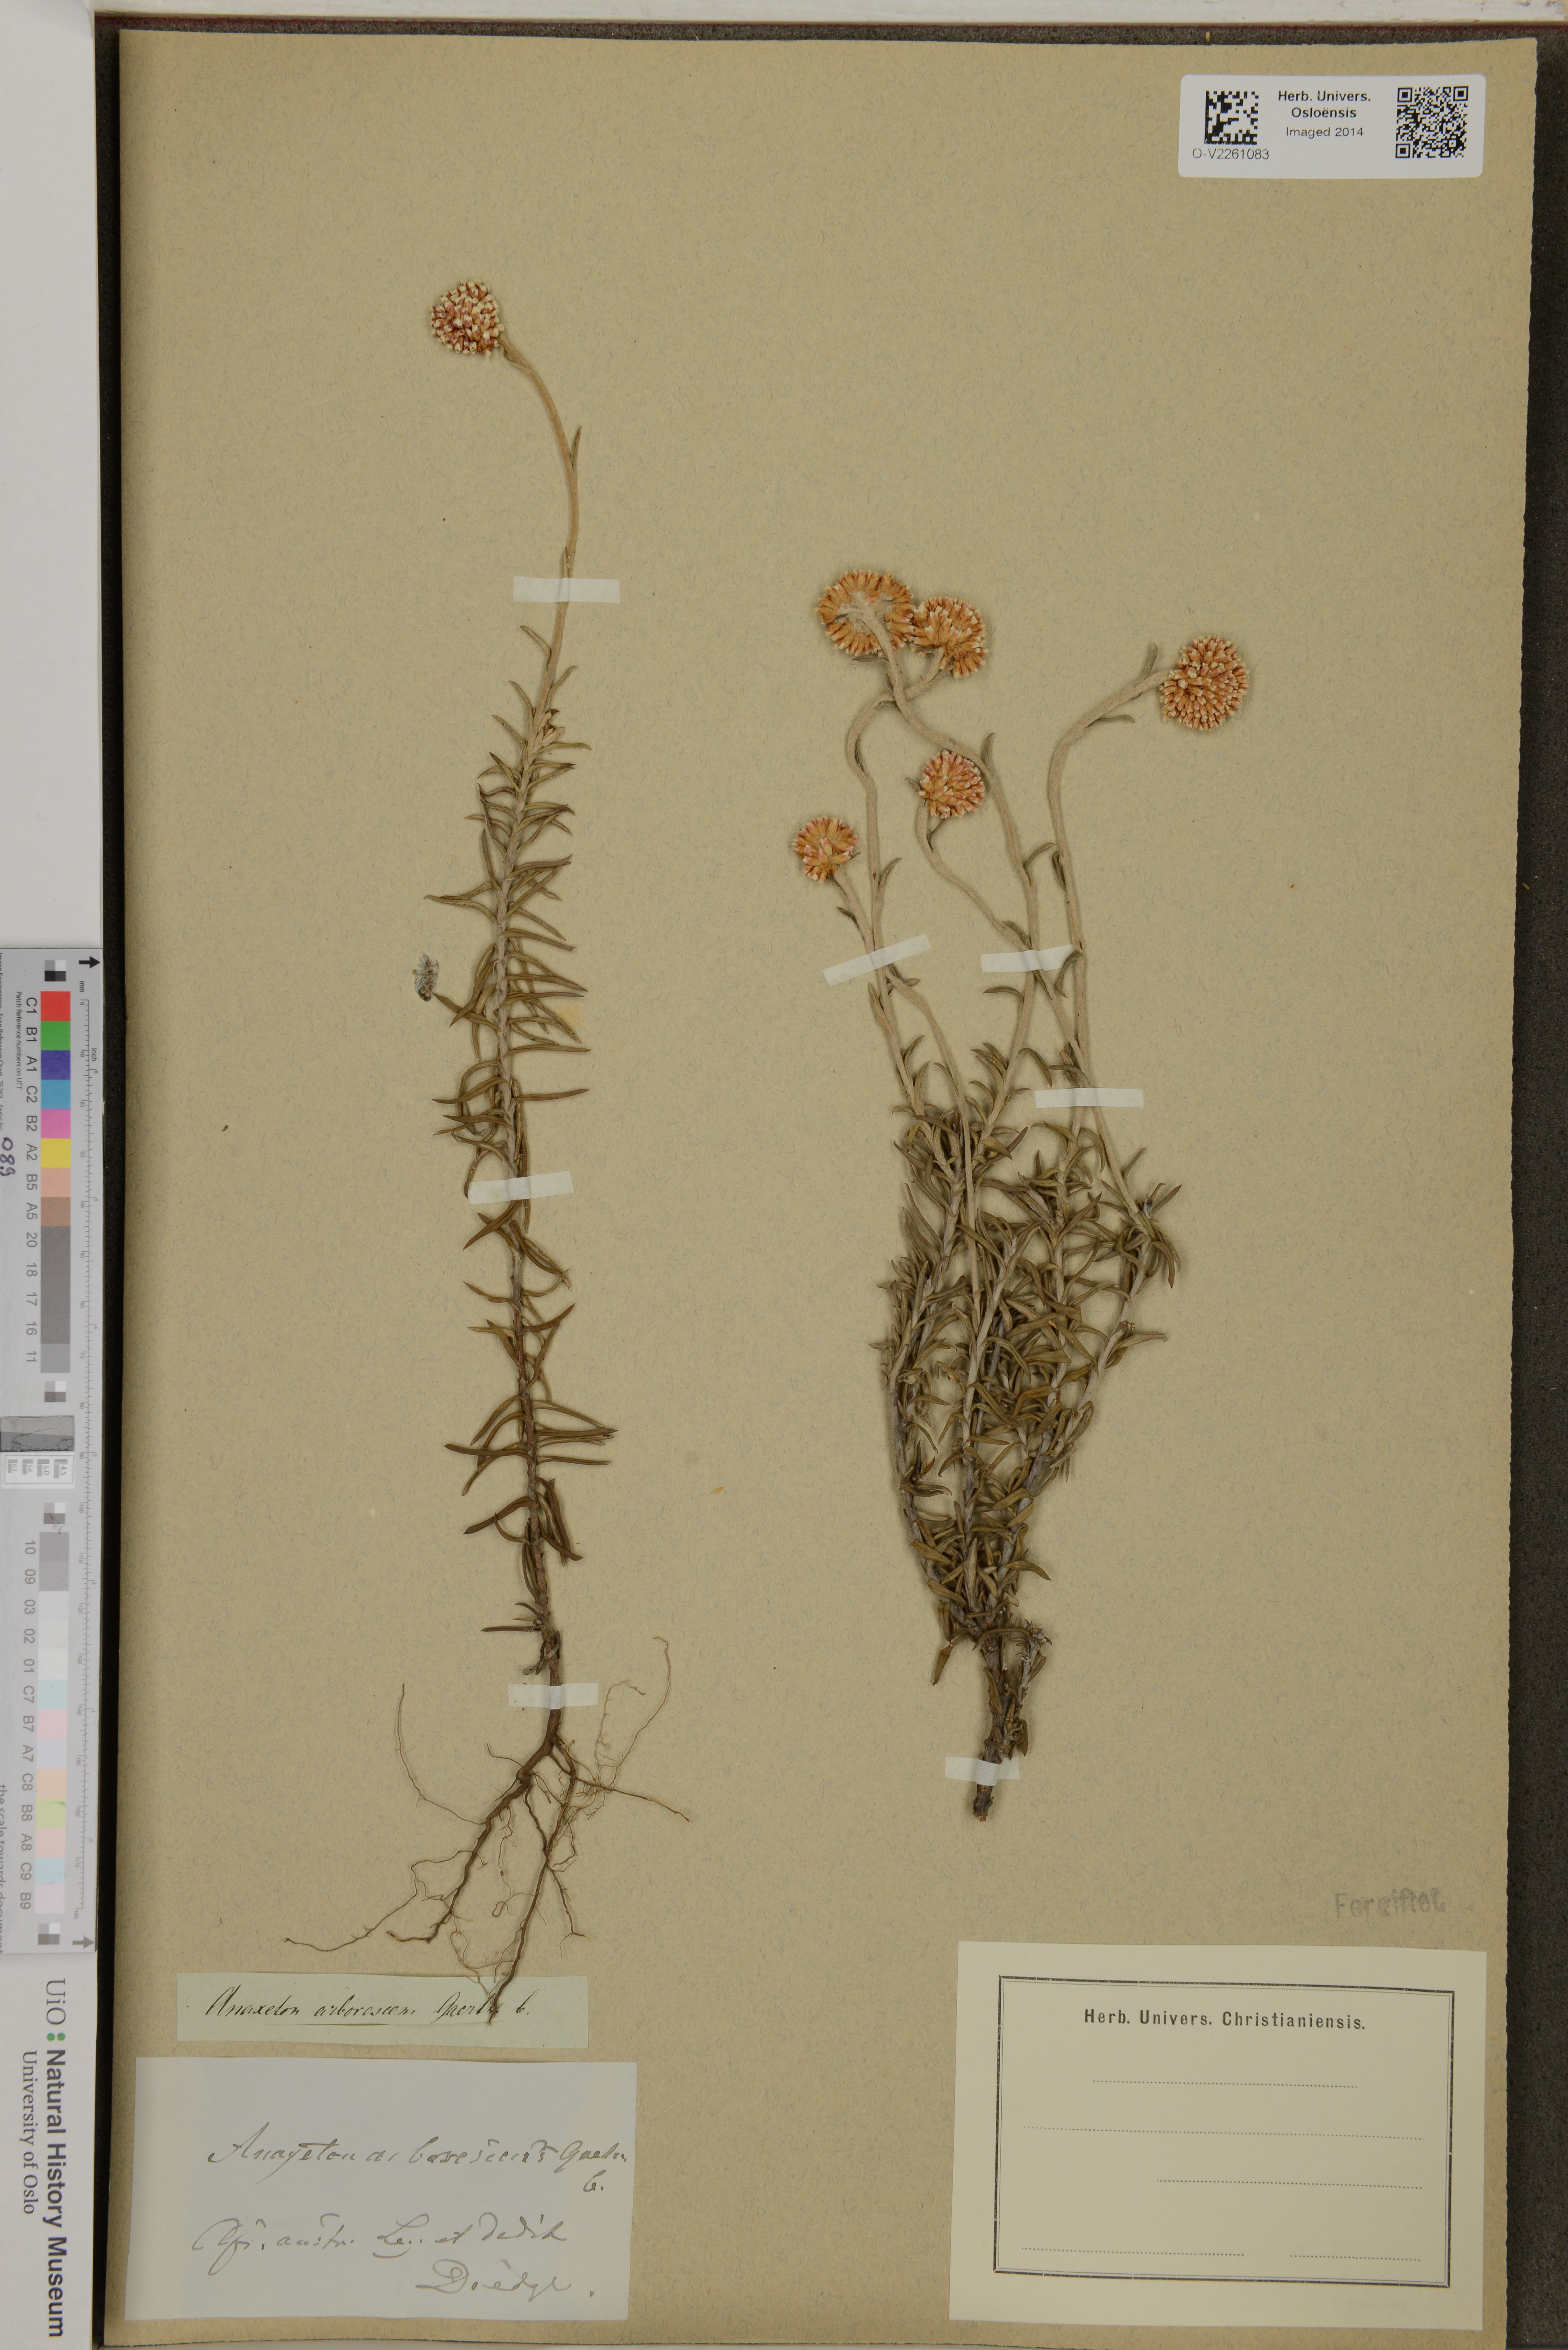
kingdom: Plantae
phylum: Tracheophyta
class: Magnoliopsida
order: Asterales
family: Asteraceae
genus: Anaxeton
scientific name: Anaxeton arborescens
